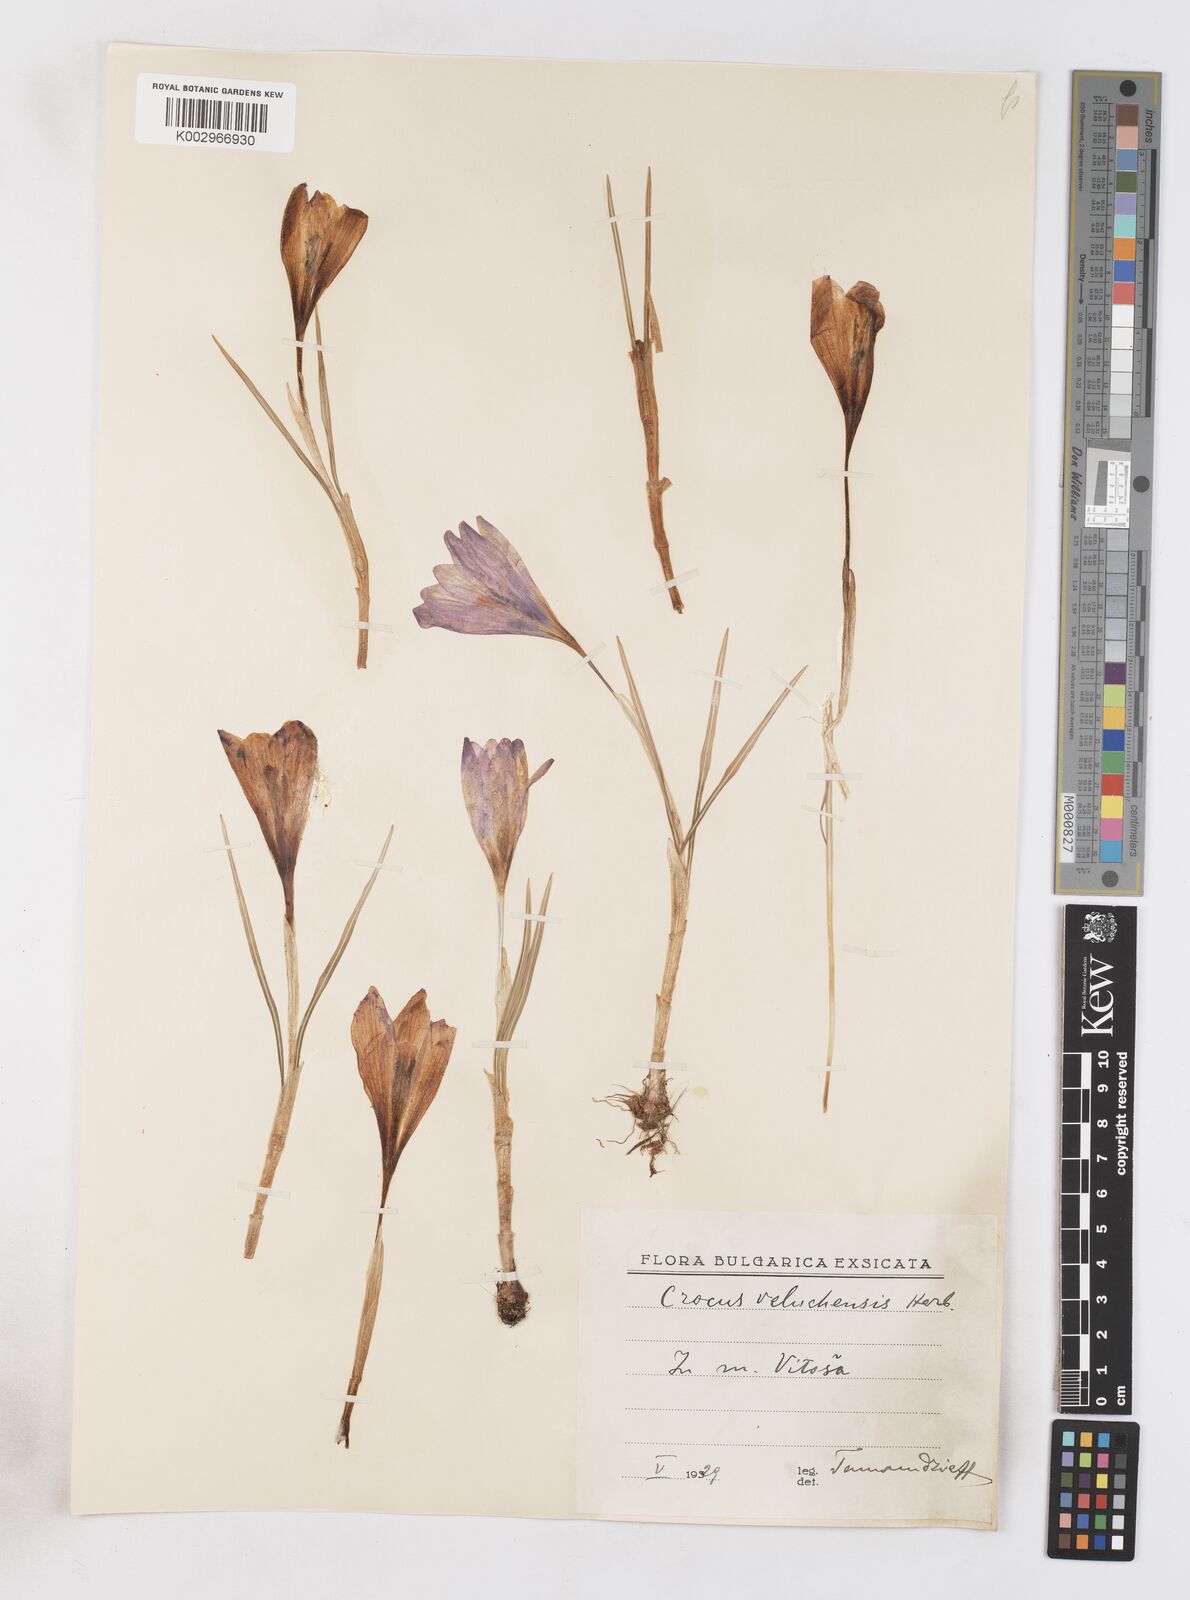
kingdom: Plantae
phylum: Tracheophyta
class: Liliopsida
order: Asparagales
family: Iridaceae
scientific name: Iridaceae
